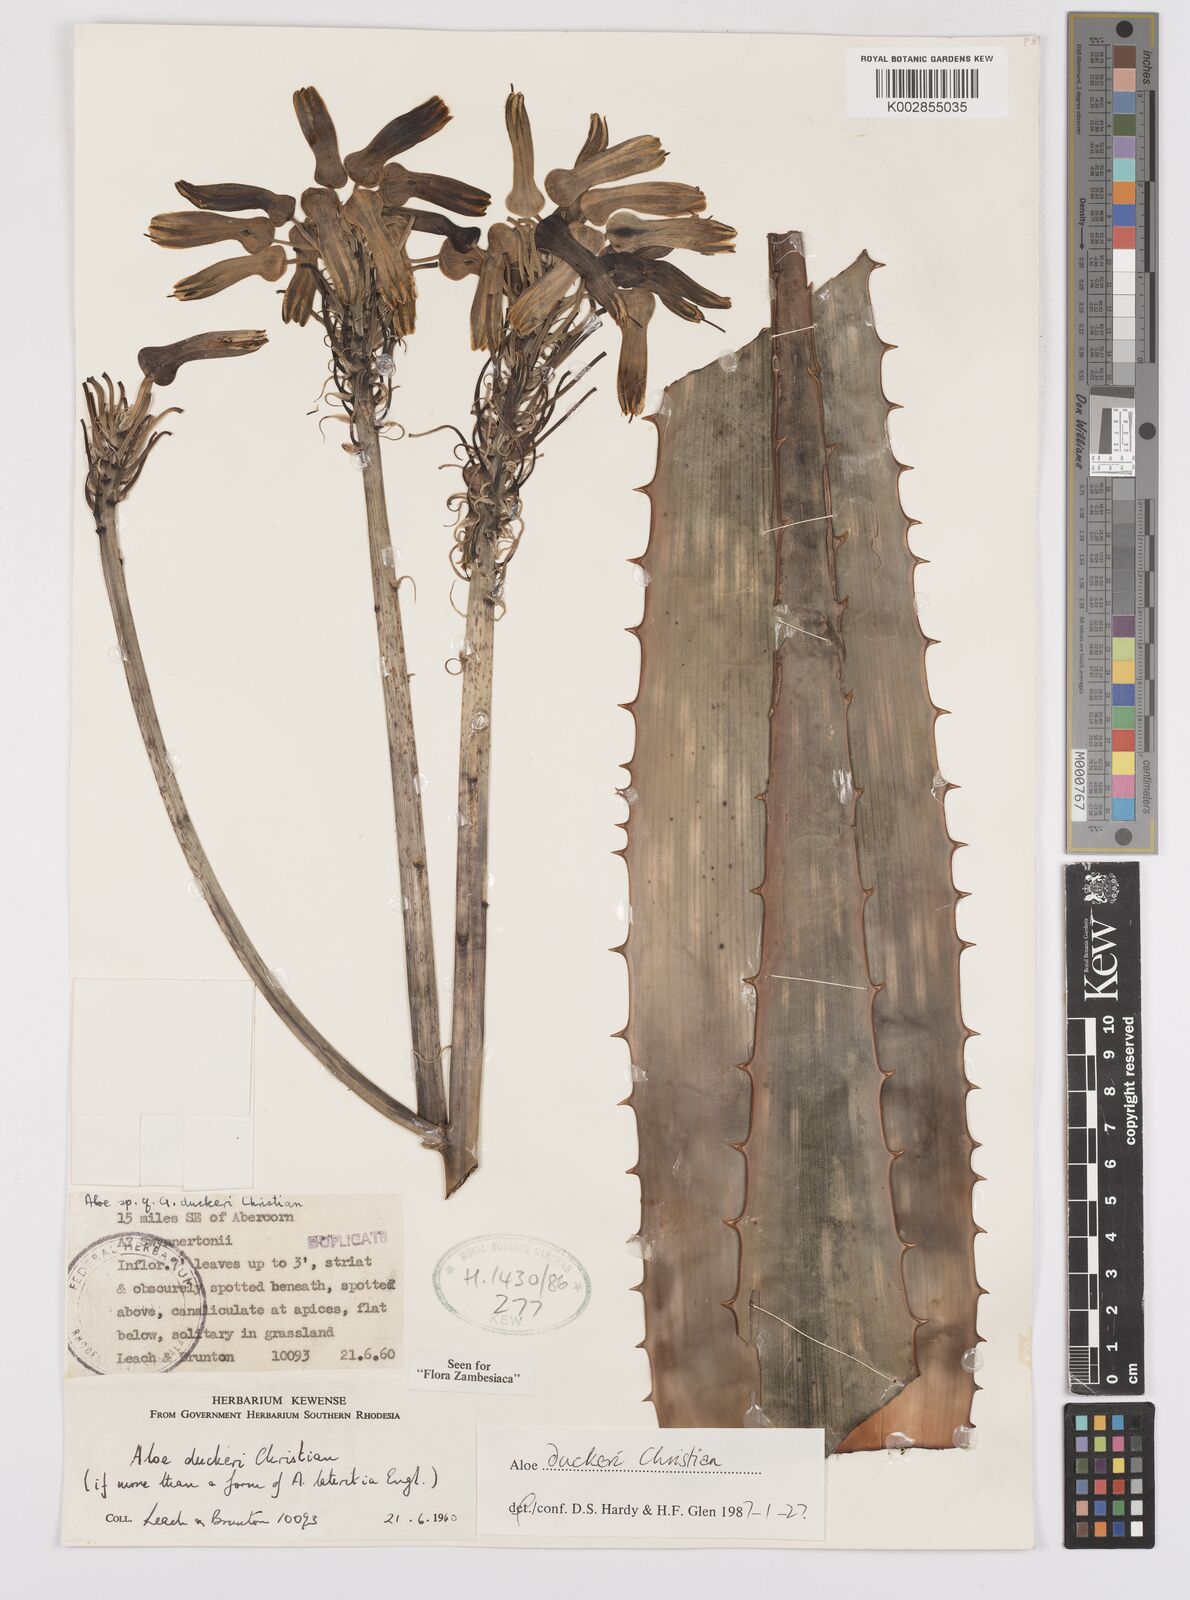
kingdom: Plantae
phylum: Tracheophyta
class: Liliopsida
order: Asparagales
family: Asphodelaceae
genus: Aloe
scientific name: Aloe duckeri
